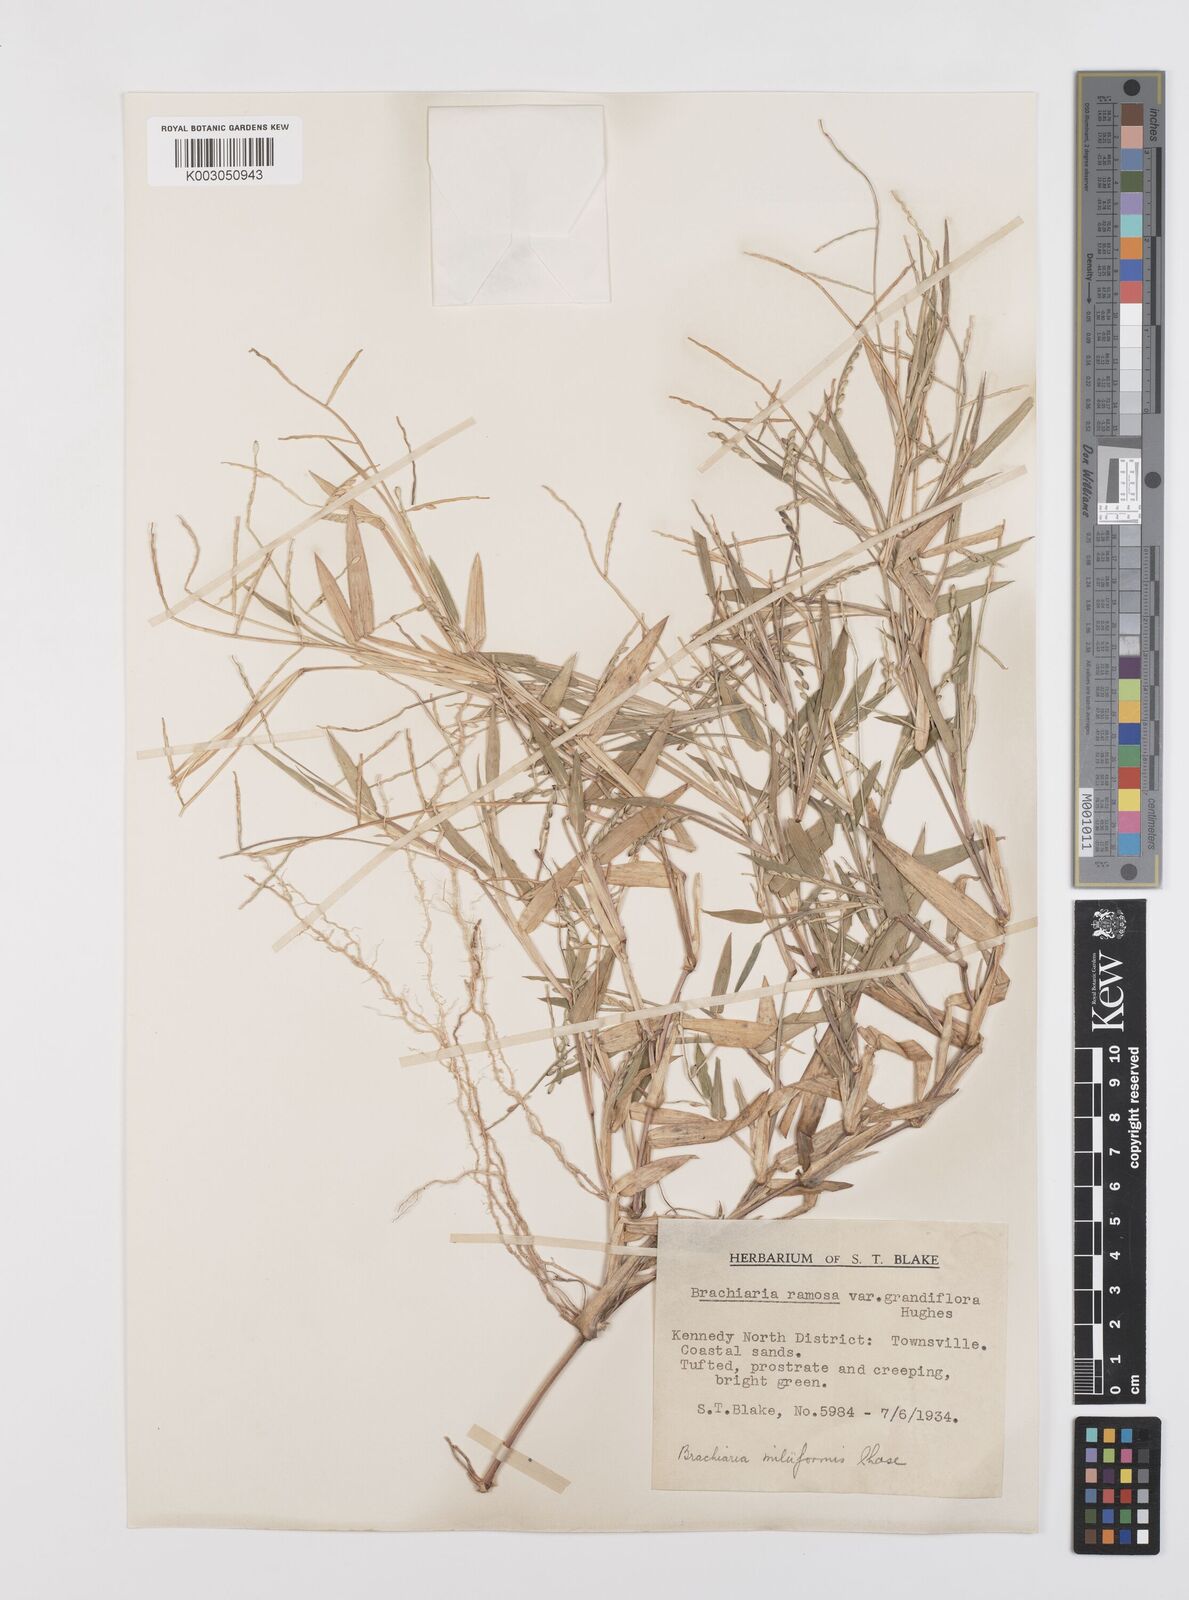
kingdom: Plantae
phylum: Tracheophyta
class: Liliopsida
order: Poales
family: Poaceae
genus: Urochloa
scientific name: Urochloa subquadripara
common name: Armgrass millet
